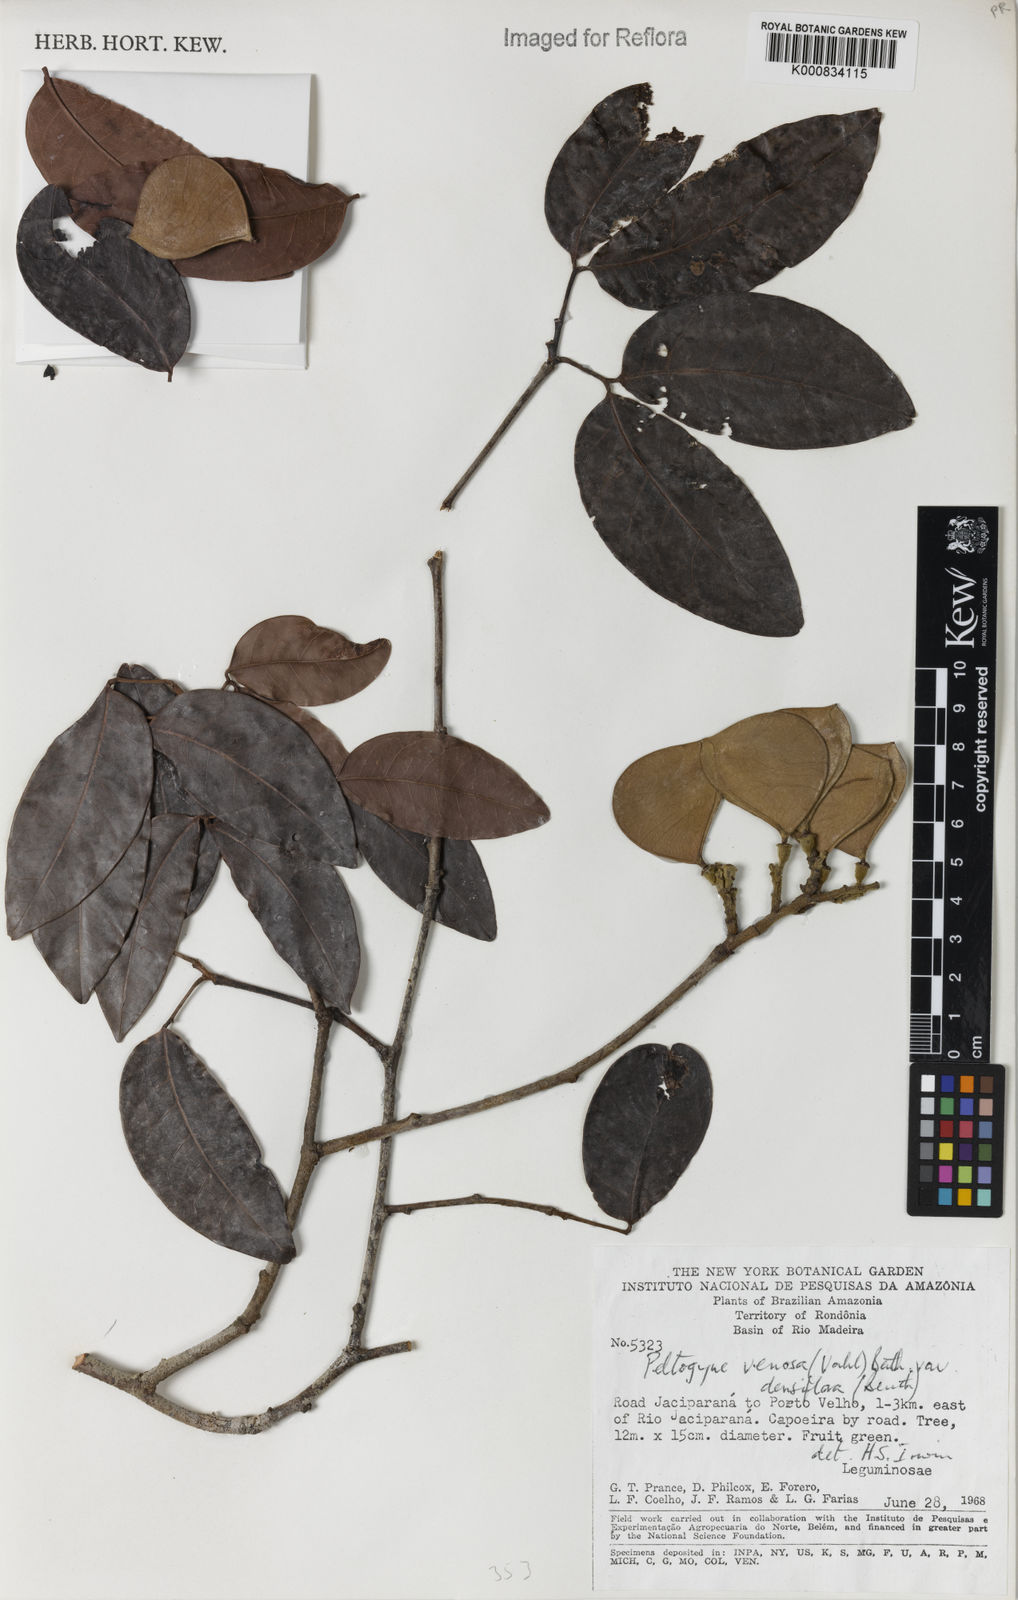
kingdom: Plantae
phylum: Tracheophyta
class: Magnoliopsida
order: Fabales
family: Fabaceae
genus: Peltogyne
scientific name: Peltogyne venosa
